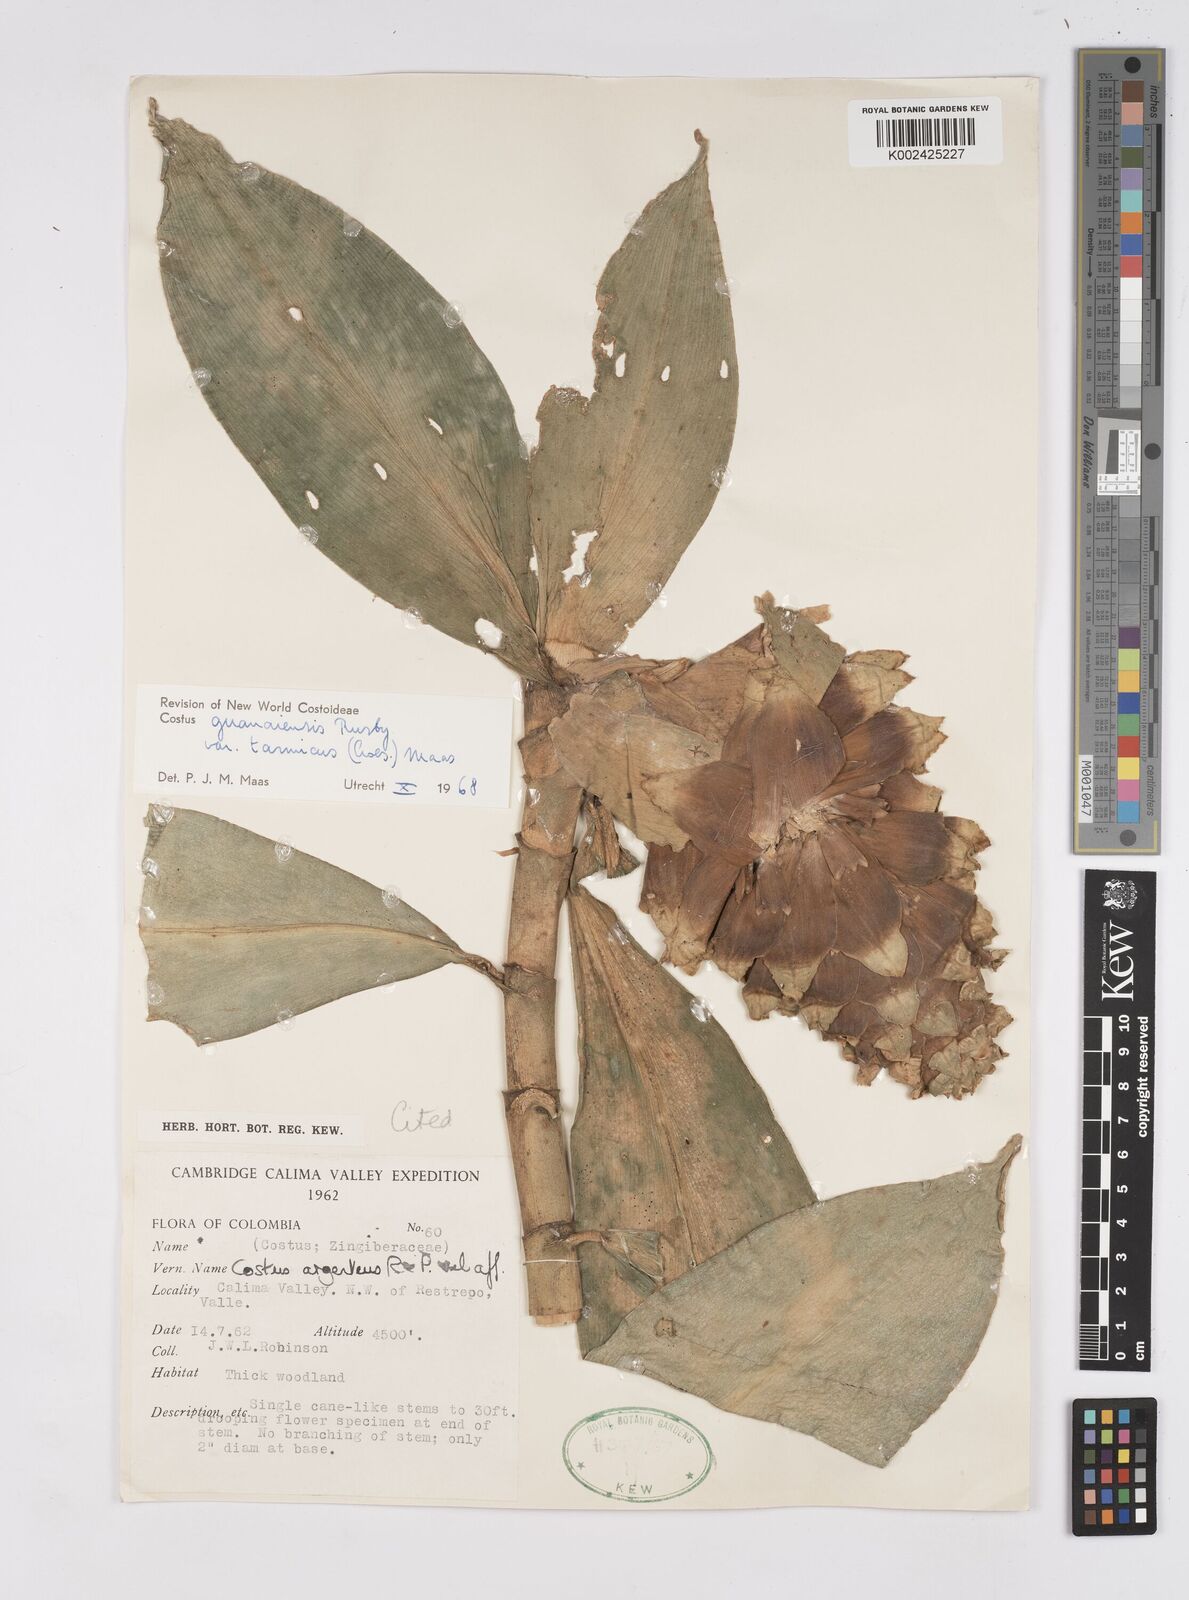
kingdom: Plantae
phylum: Tracheophyta
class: Liliopsida
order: Zingiberales
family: Costaceae
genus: Costus
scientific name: Costus guanaiensis
